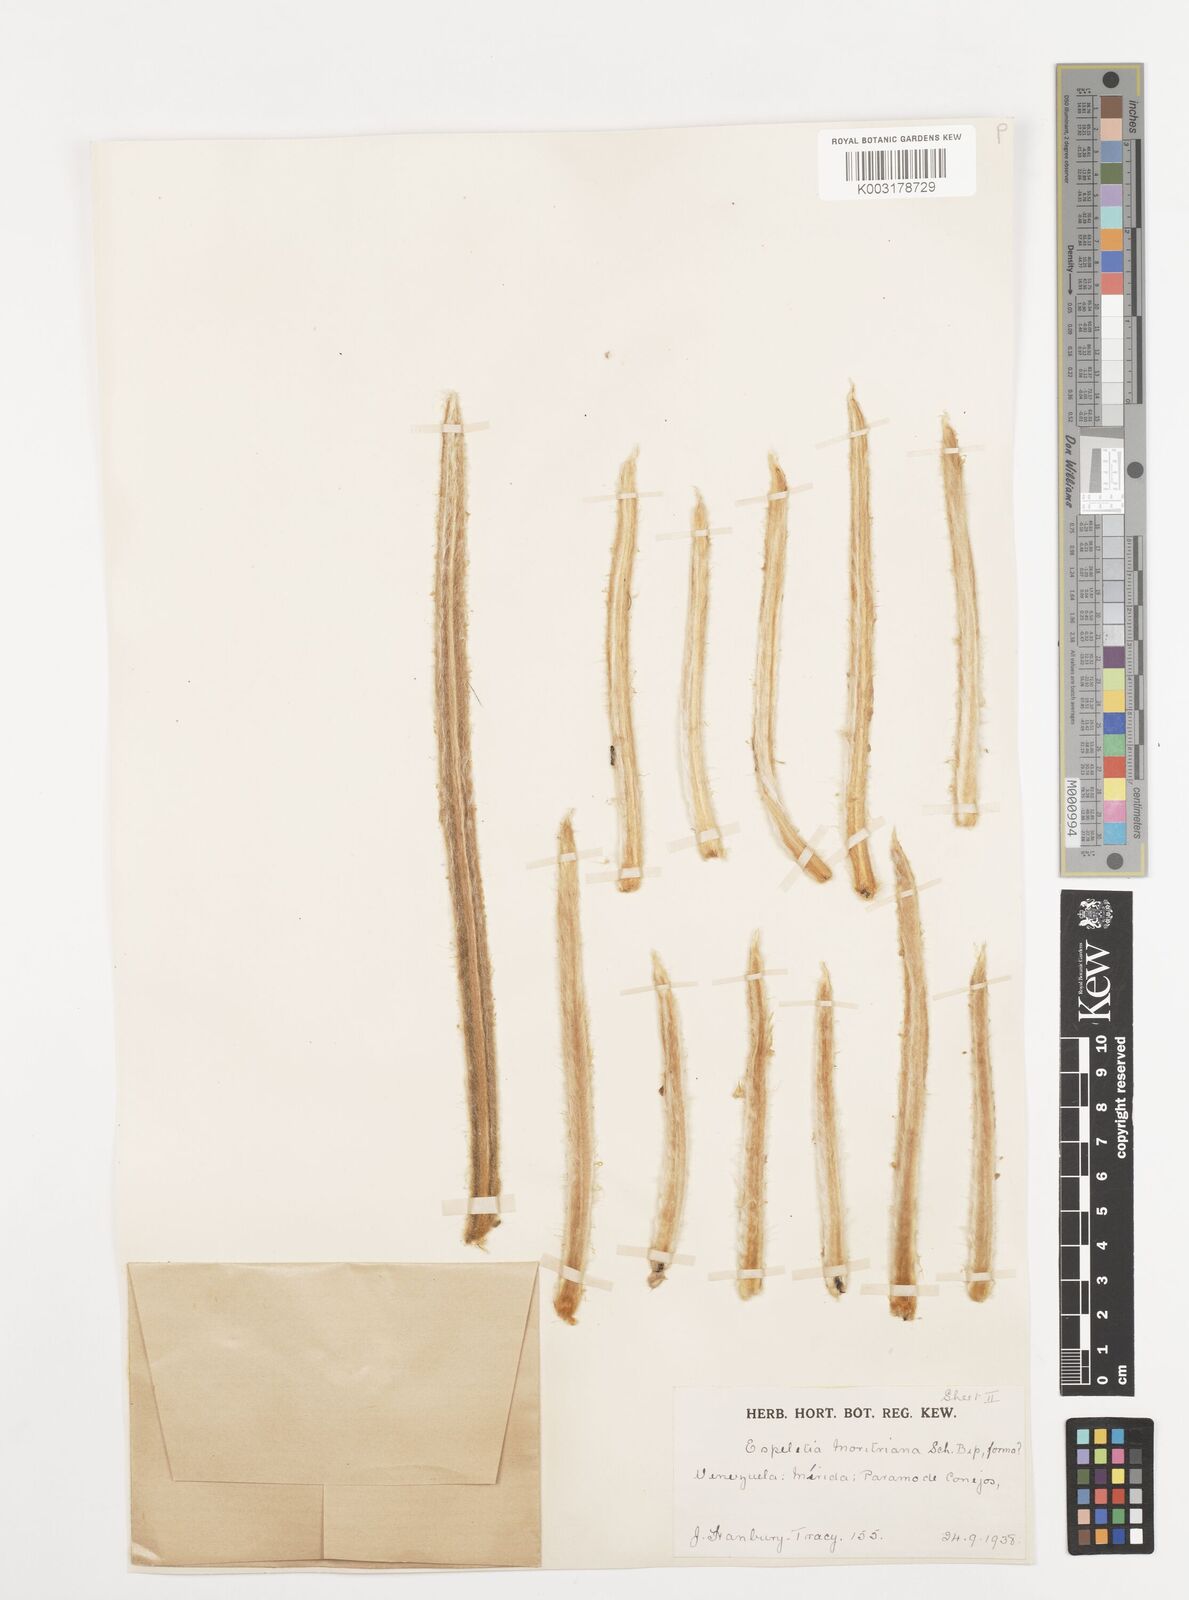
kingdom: Plantae
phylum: Tracheophyta
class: Magnoliopsida
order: Asterales
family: Asteraceae
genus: Espeletia
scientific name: Espeletia moritziana
